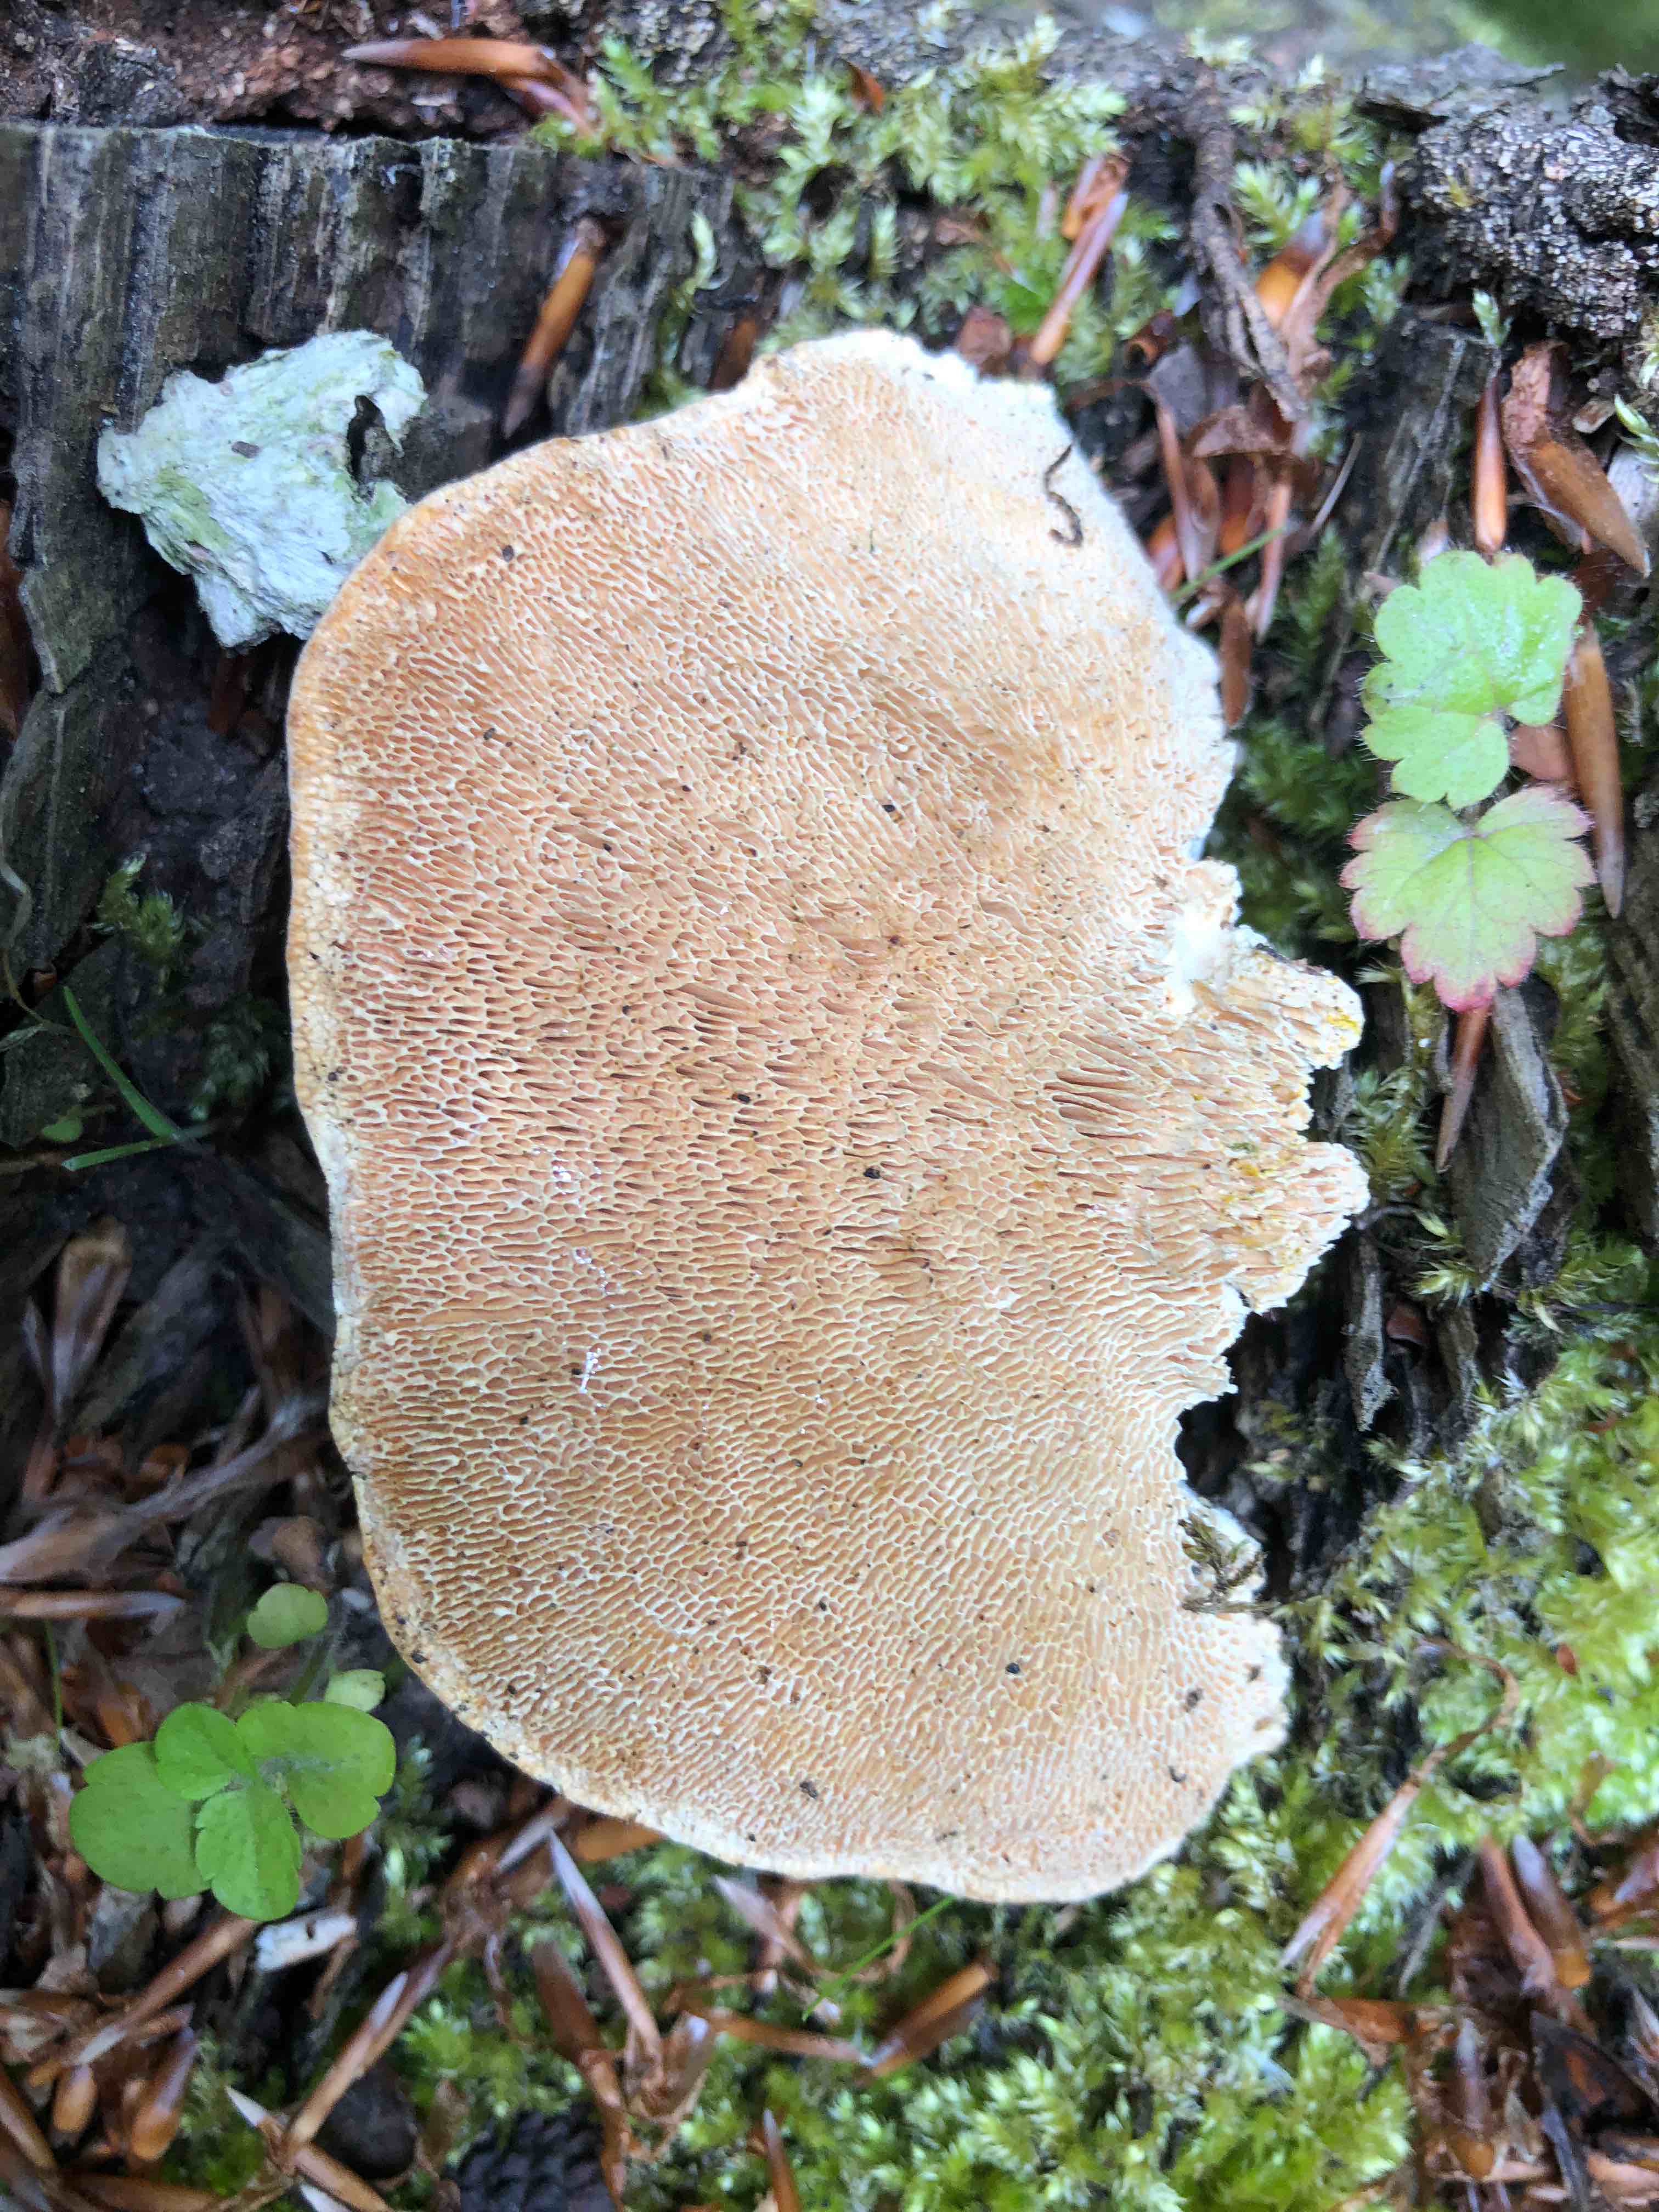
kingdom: Fungi
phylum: Basidiomycota
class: Agaricomycetes
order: Polyporales
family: Polyporaceae
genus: Trametes
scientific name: Trametes hirsuta
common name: håret læderporesvamp
